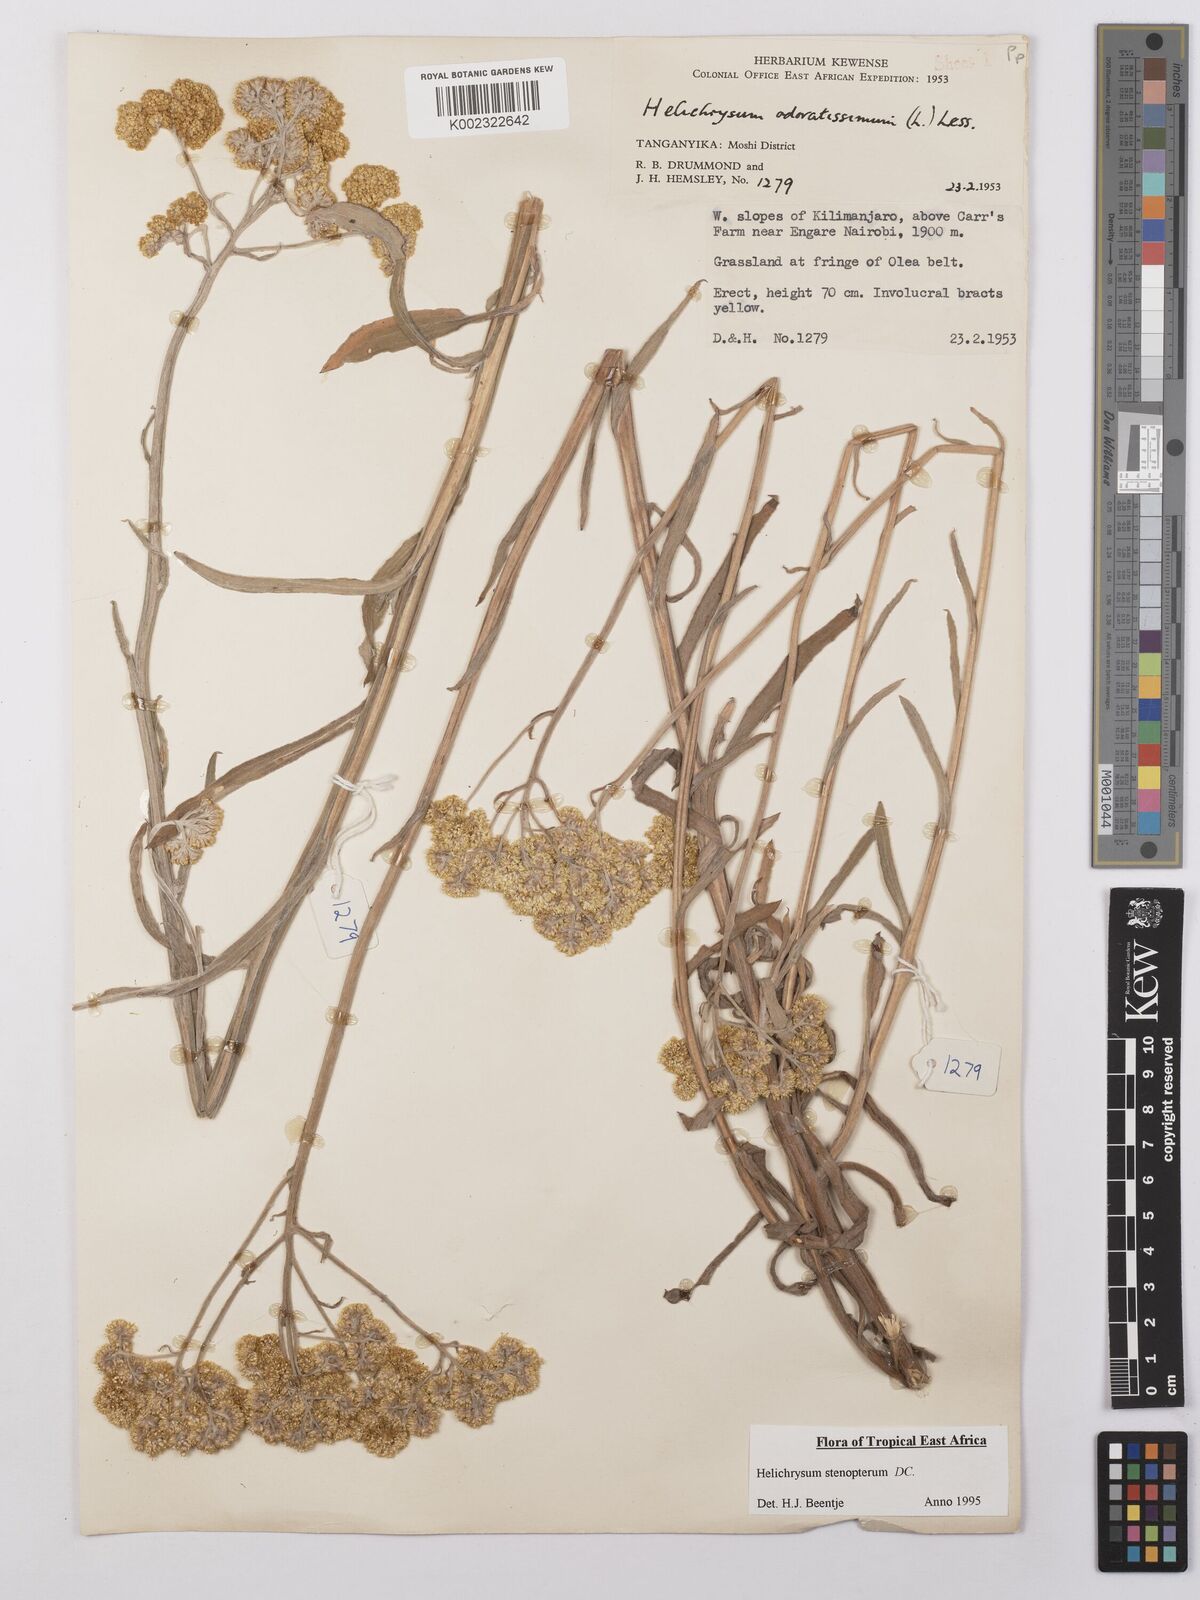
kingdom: Plantae
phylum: Tracheophyta
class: Magnoliopsida
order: Asterales
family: Asteraceae
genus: Helichrysum
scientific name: Helichrysum stenopterum
